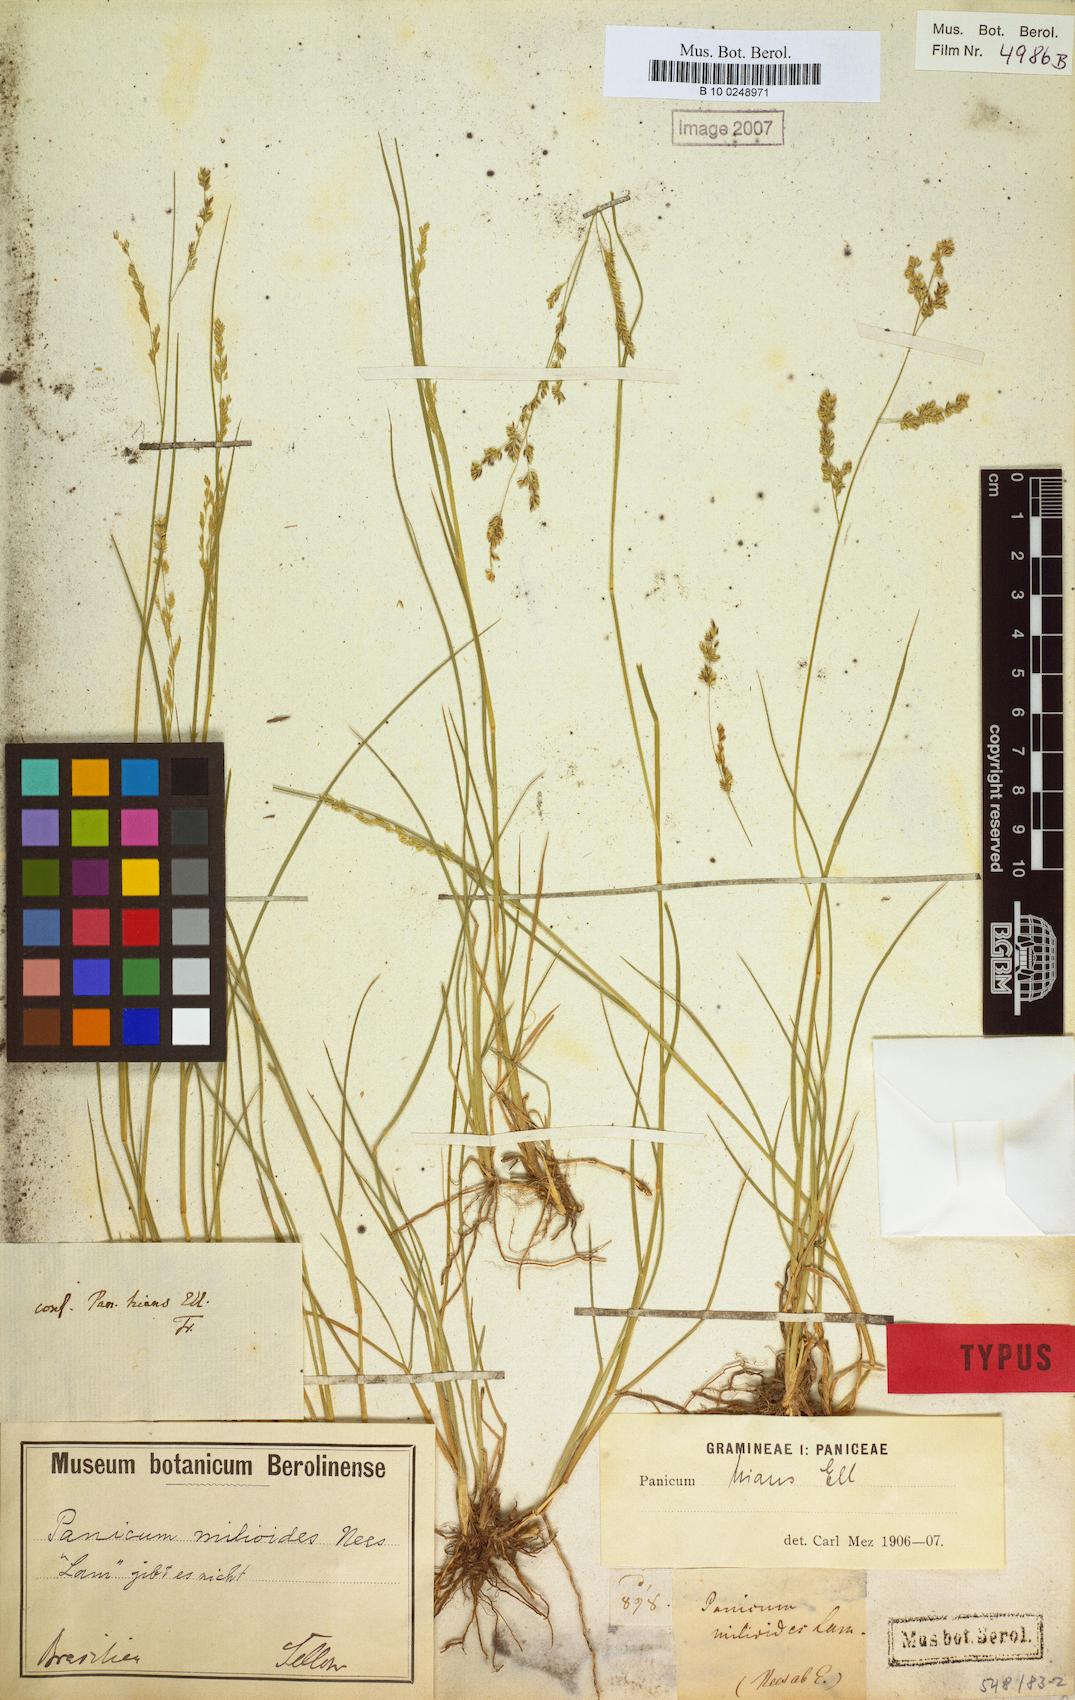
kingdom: Plantae
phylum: Tracheophyta
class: Liliopsida
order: Poales
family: Poaceae
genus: Steinchisma
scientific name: Steinchisma hians
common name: Gaping panic grass
